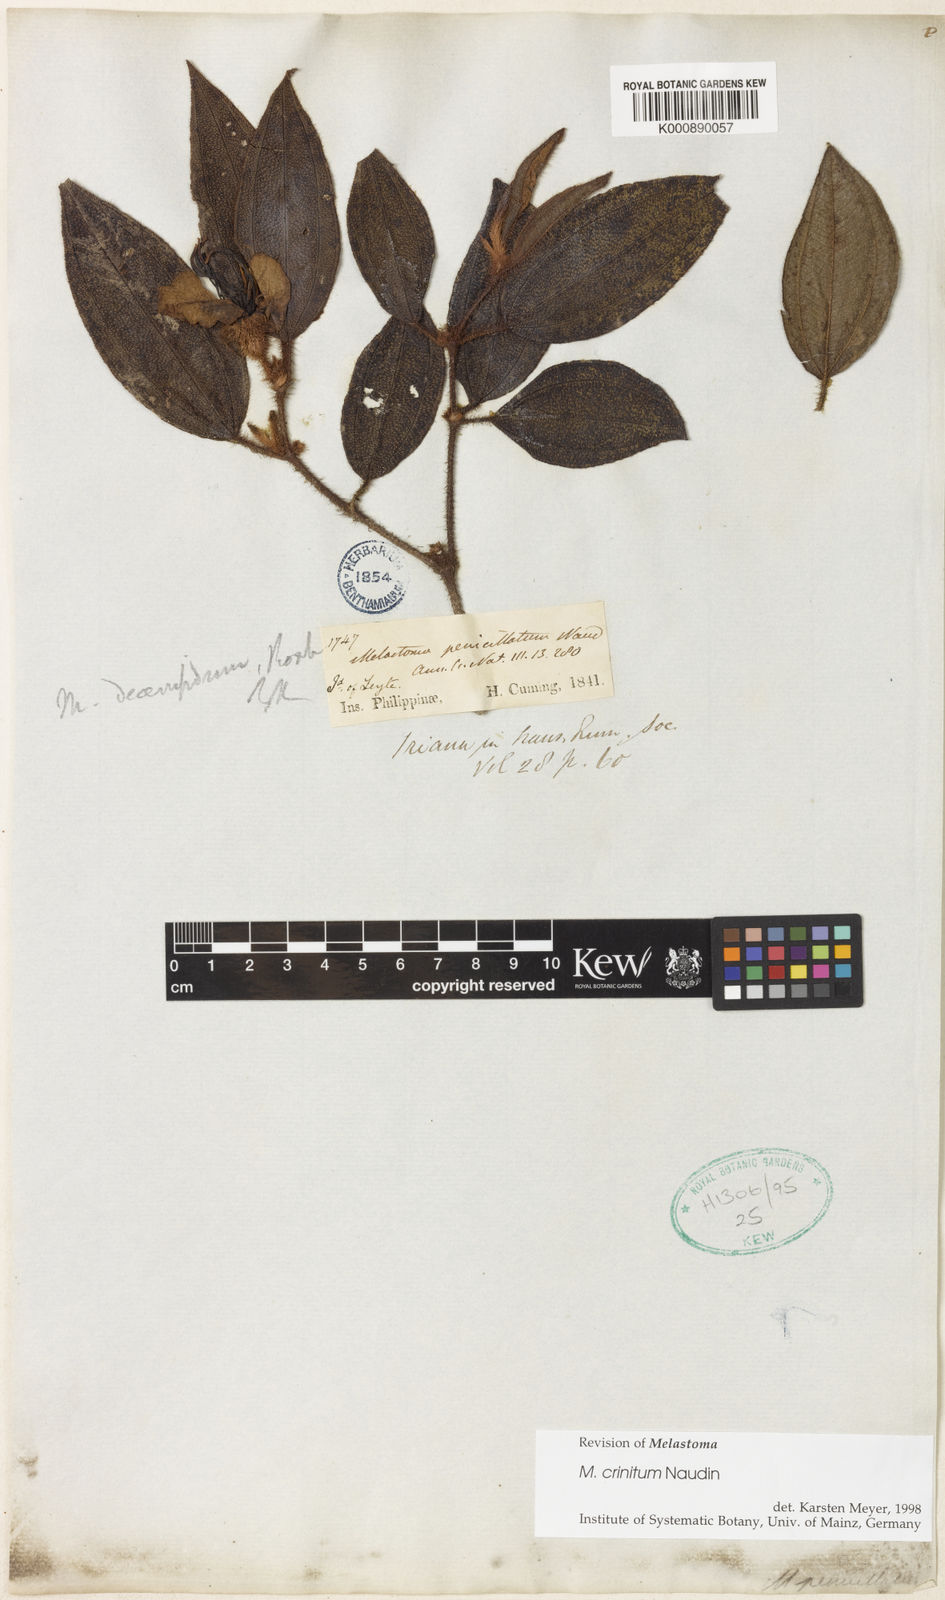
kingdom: Plantae
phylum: Tracheophyta
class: Magnoliopsida
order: Myrtales
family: Melastomataceae
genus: Melastoma
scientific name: Melastoma penicillatum
